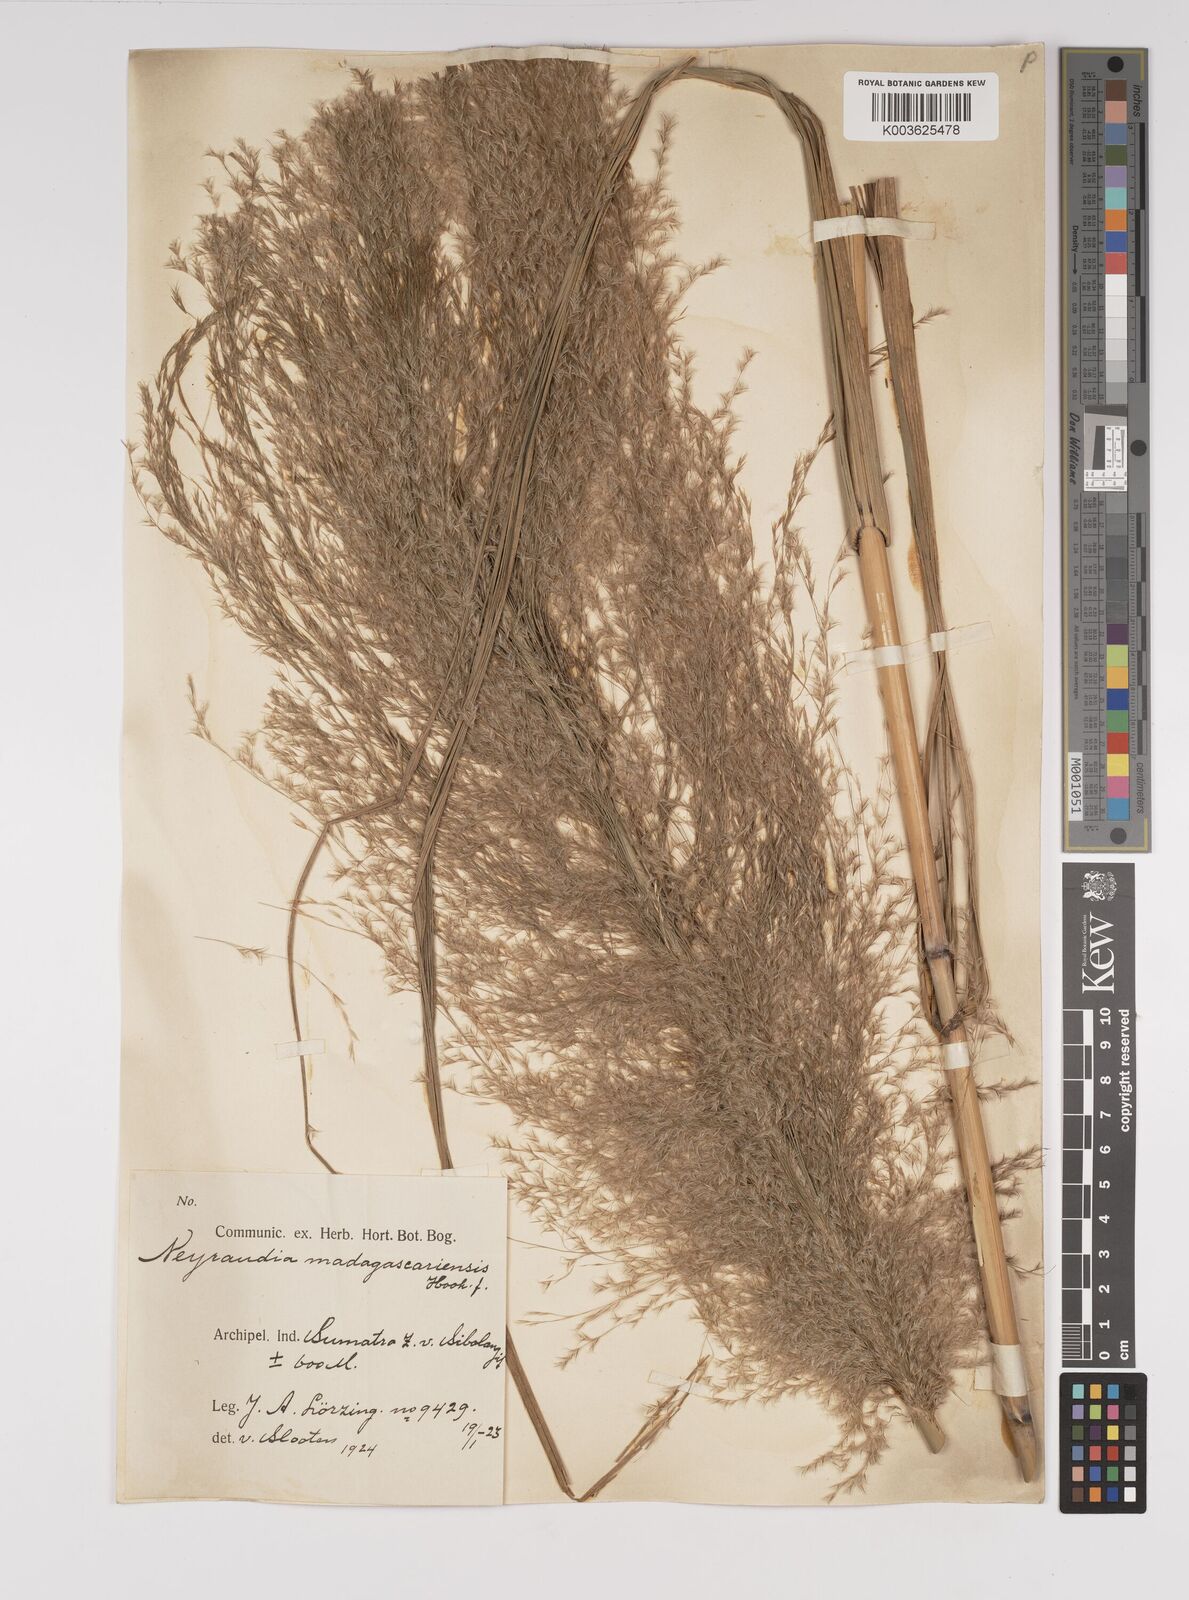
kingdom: Plantae
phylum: Tracheophyta
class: Liliopsida
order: Poales
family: Poaceae
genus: Neyraudia
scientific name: Neyraudia reynaudiana
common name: Silkreed
